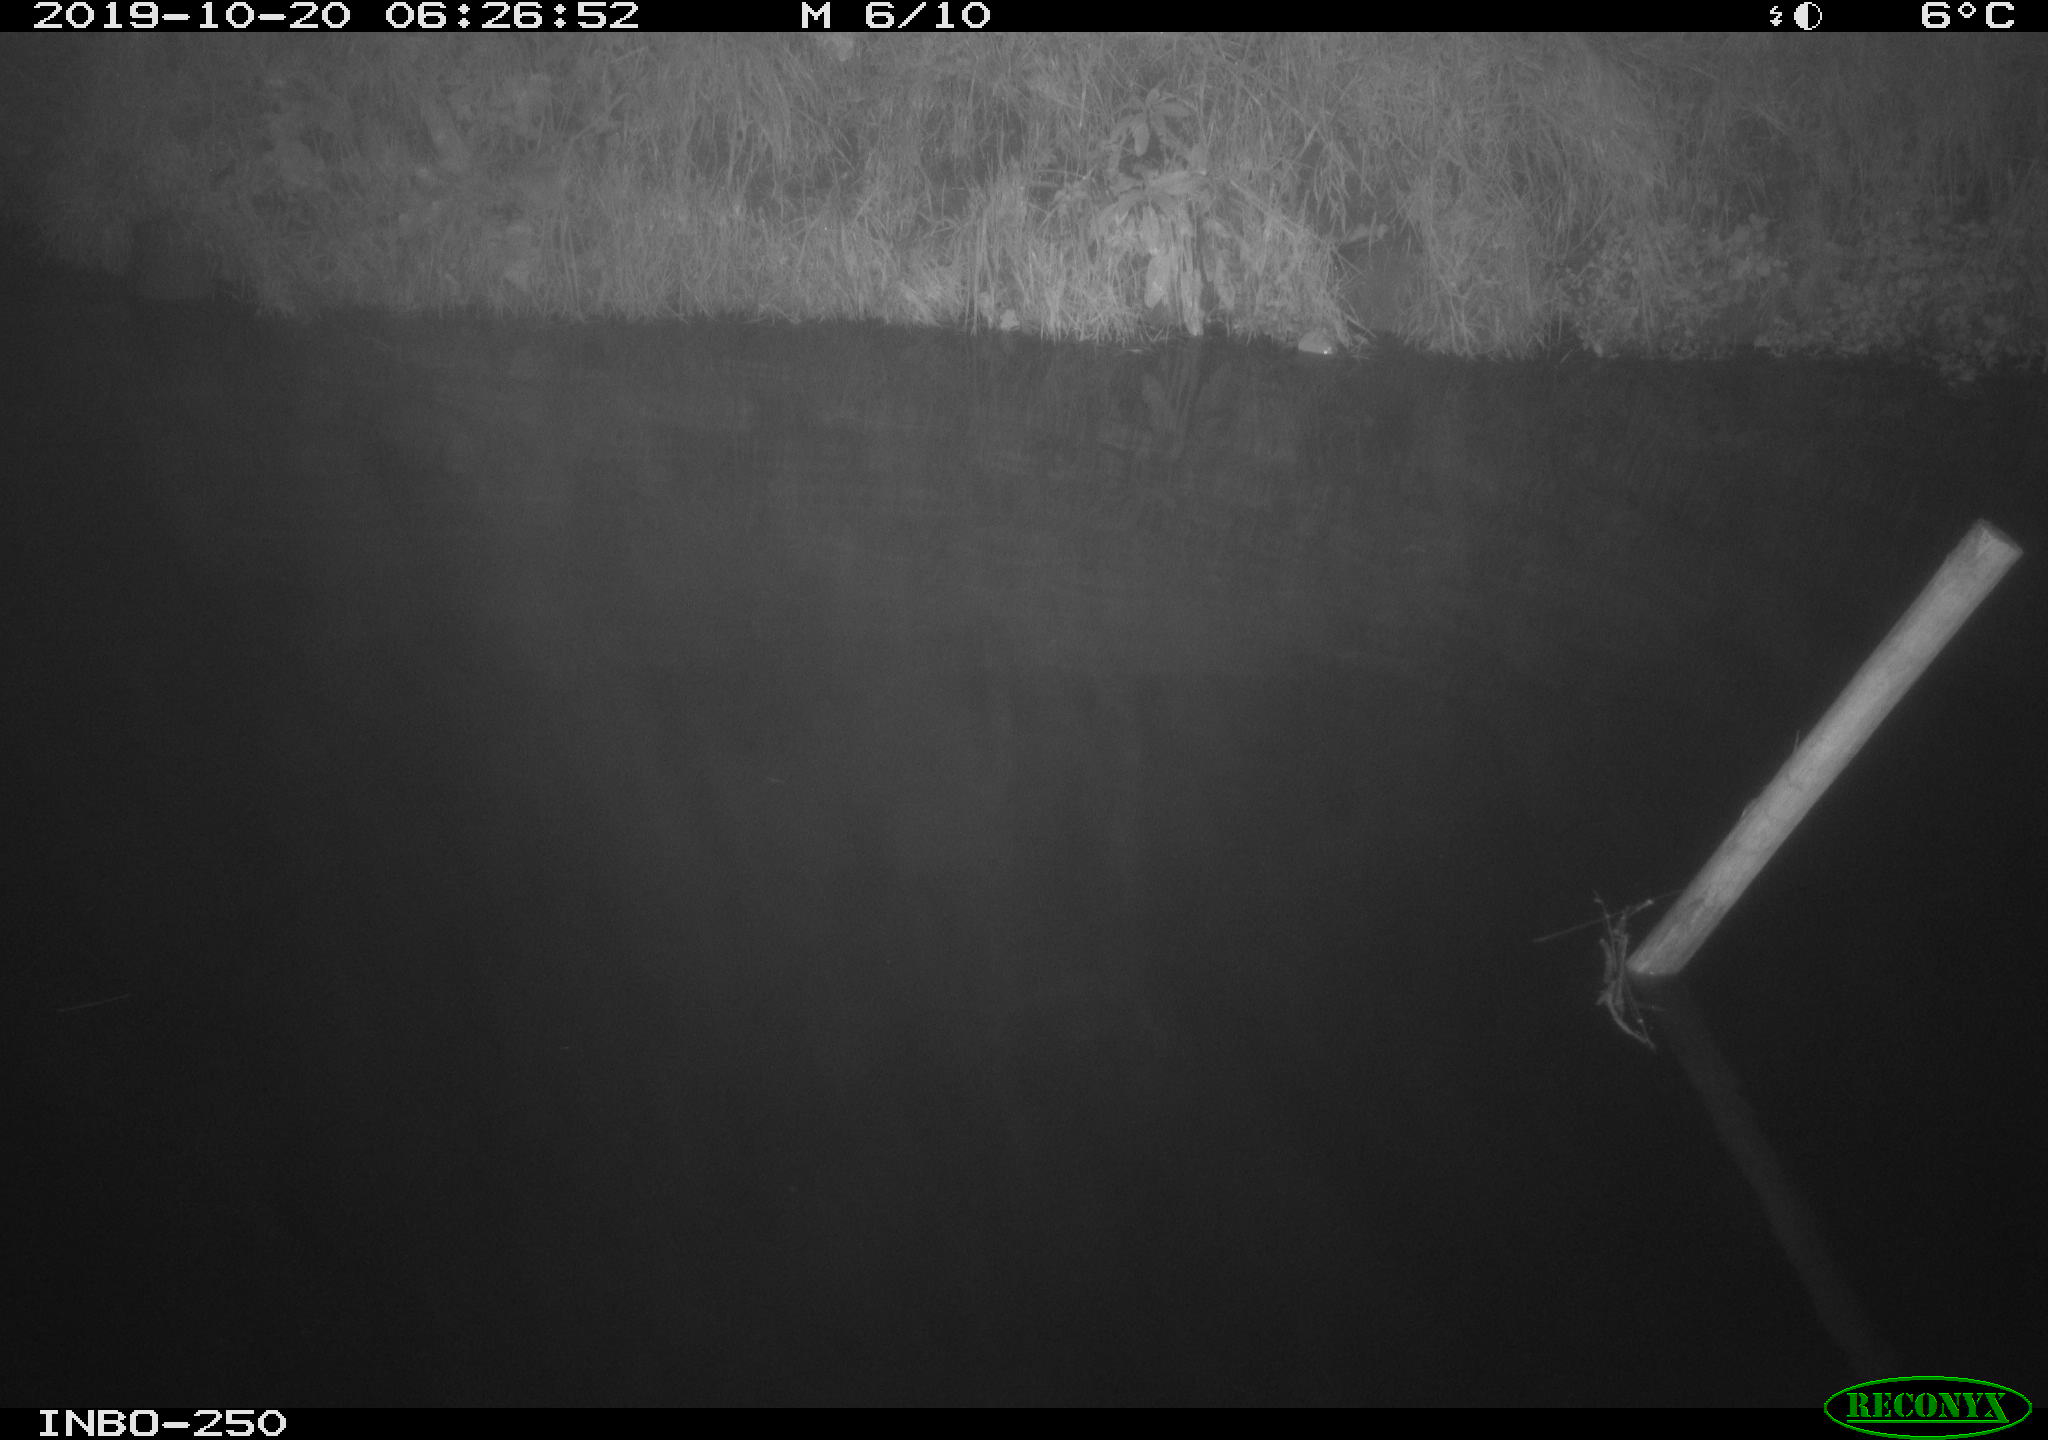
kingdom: Animalia
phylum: Chordata
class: Aves
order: Anseriformes
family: Anatidae
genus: Anas
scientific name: Anas platyrhynchos
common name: Mallard
